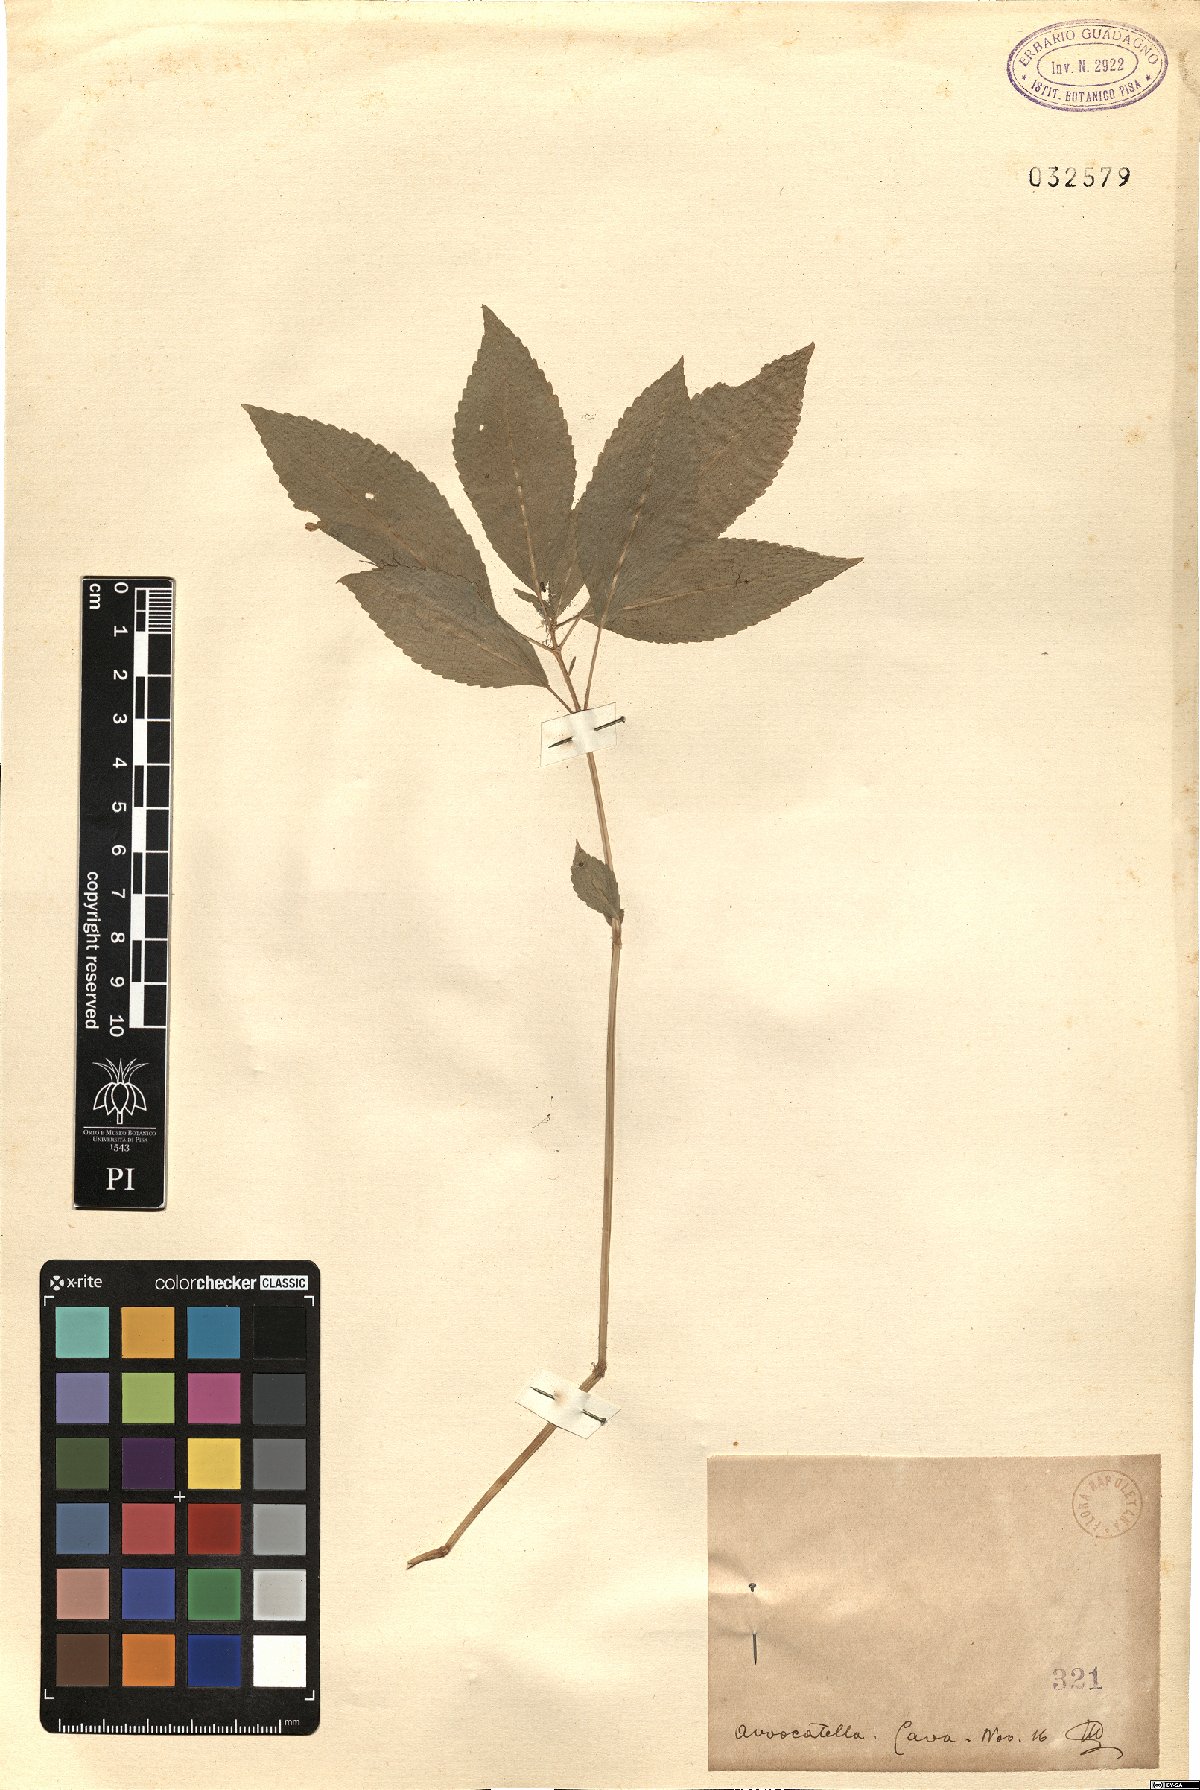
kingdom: Plantae
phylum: Tracheophyta
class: Magnoliopsida
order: Malpighiales
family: Euphorbiaceae
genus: Mercurialis
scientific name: Mercurialis
